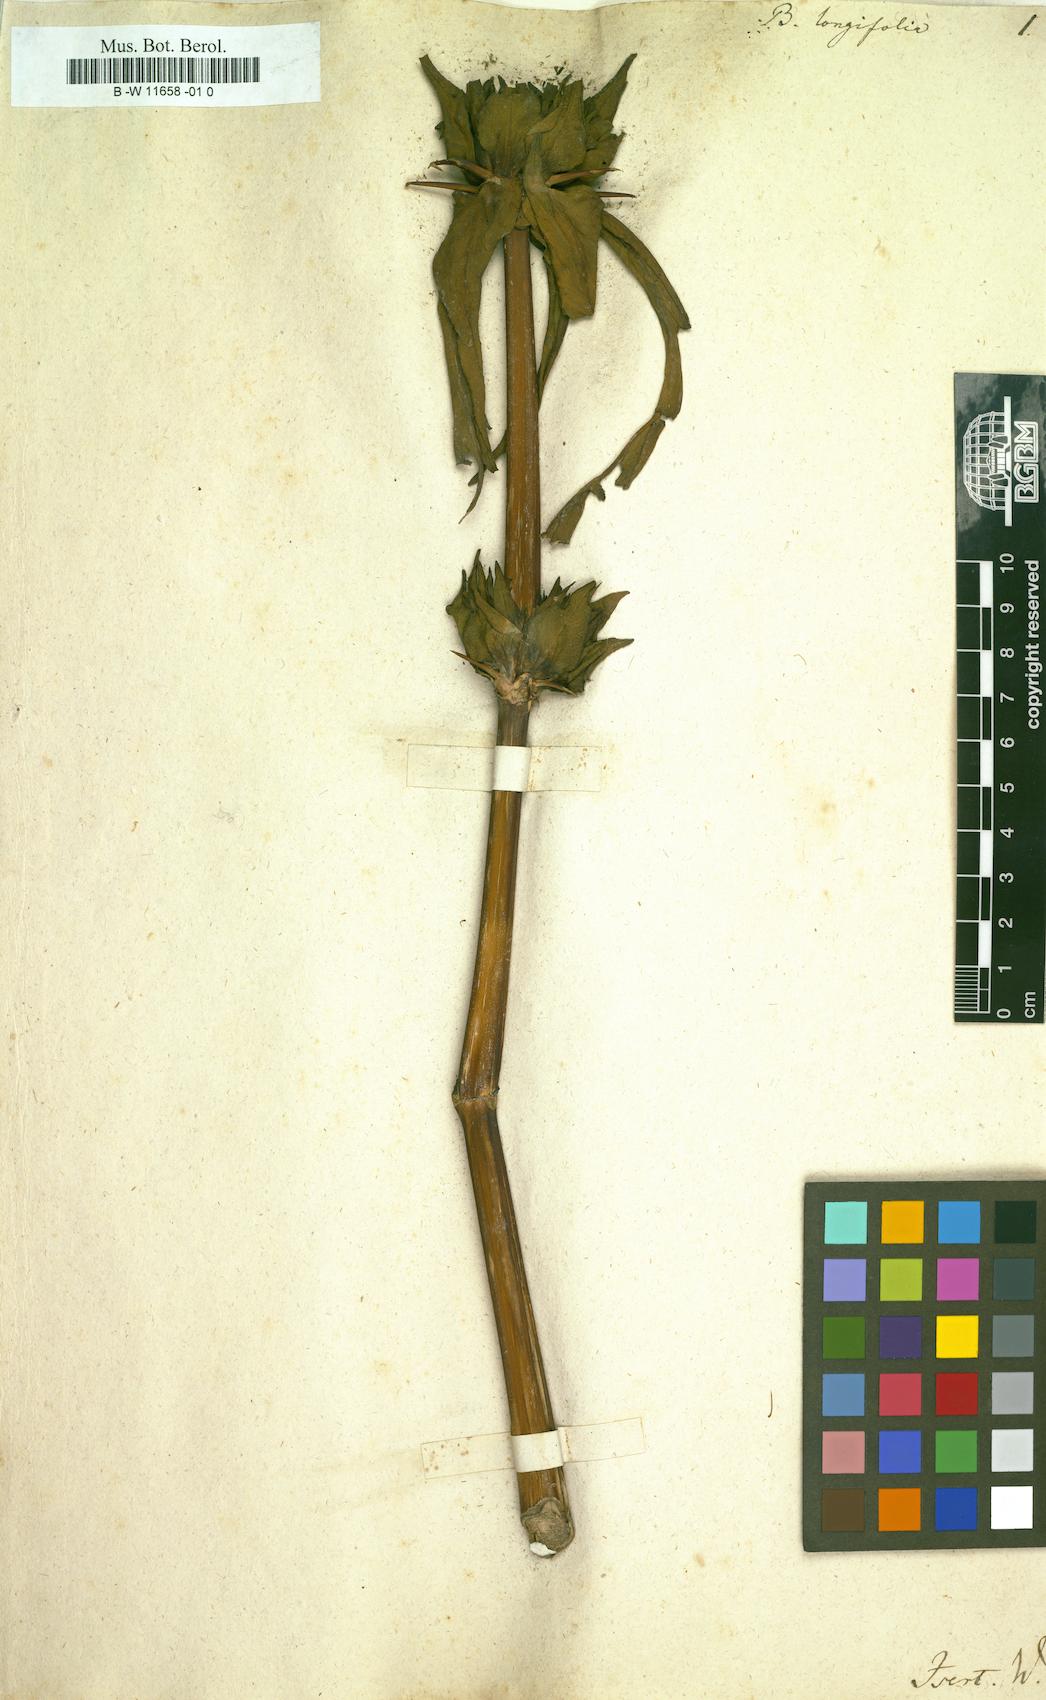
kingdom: Plantae
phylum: Tracheophyta
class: Magnoliopsida
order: Lamiales
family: Acanthaceae
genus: Hygrophila
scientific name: Hygrophila auriculata
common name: Hygrophila
